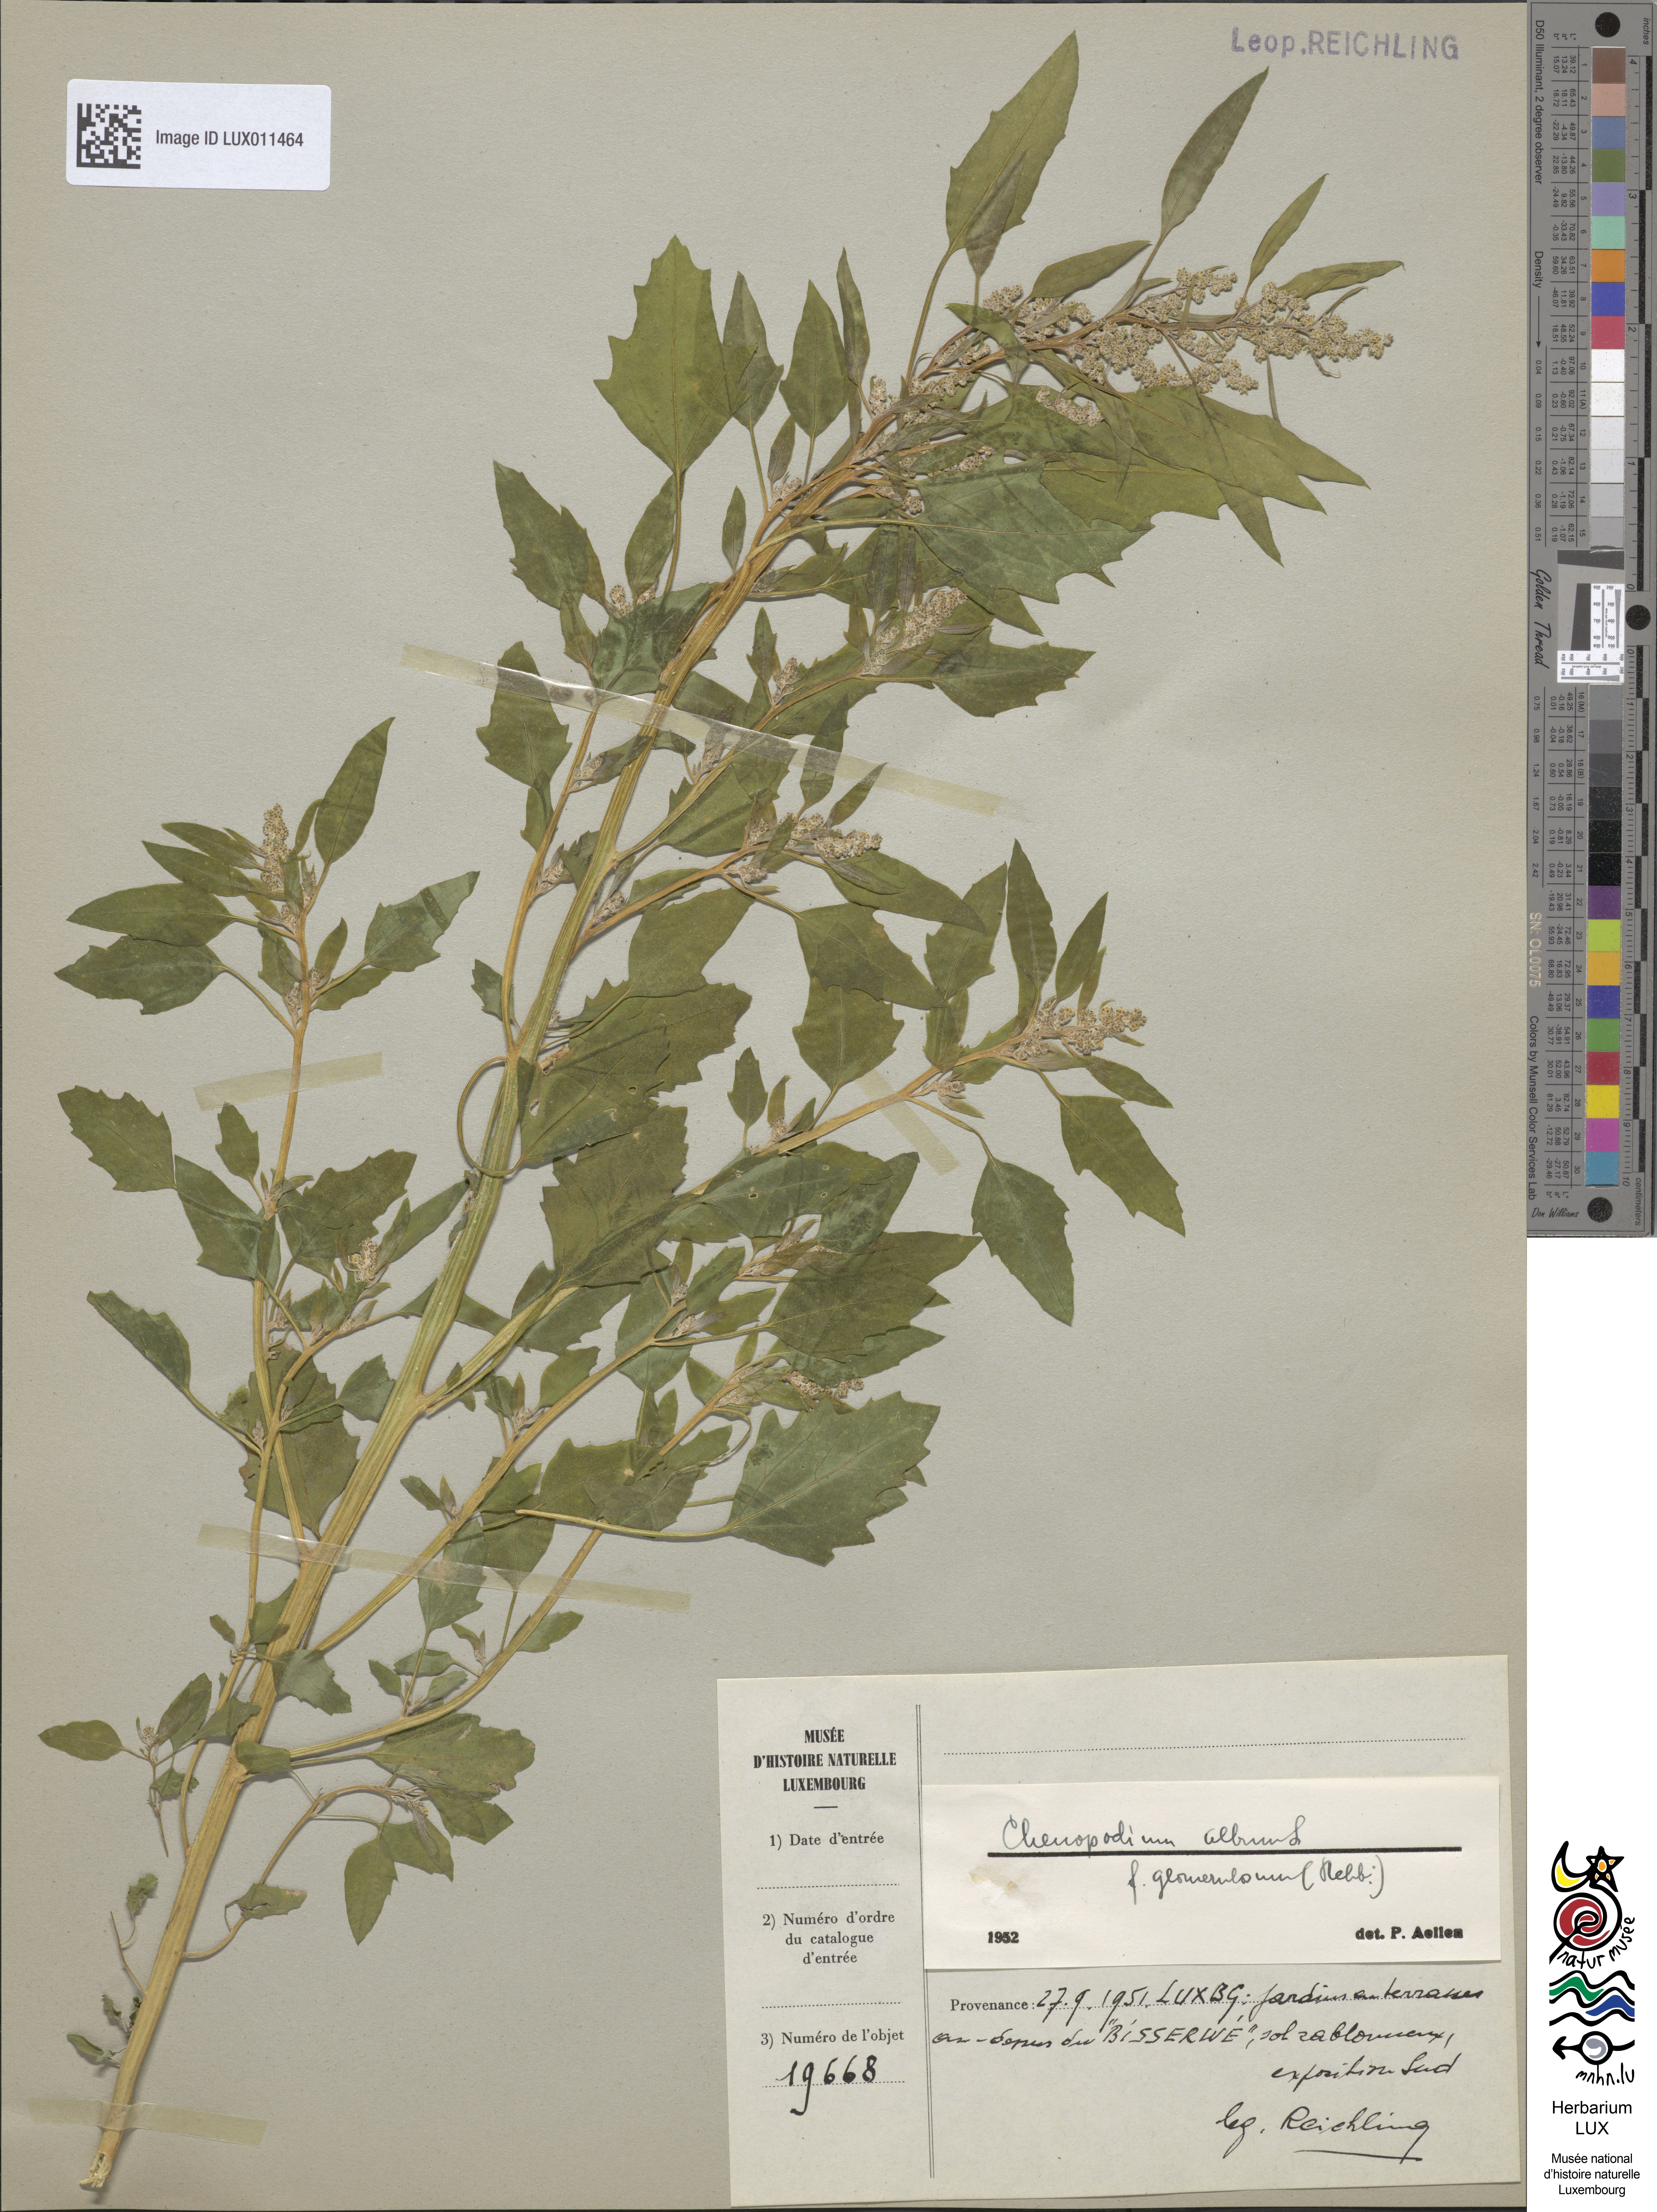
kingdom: Plantae
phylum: Tracheophyta
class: Magnoliopsida
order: Caryophyllales
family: Amaranthaceae
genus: Chenopodium
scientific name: Chenopodium album
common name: Fat-hen
